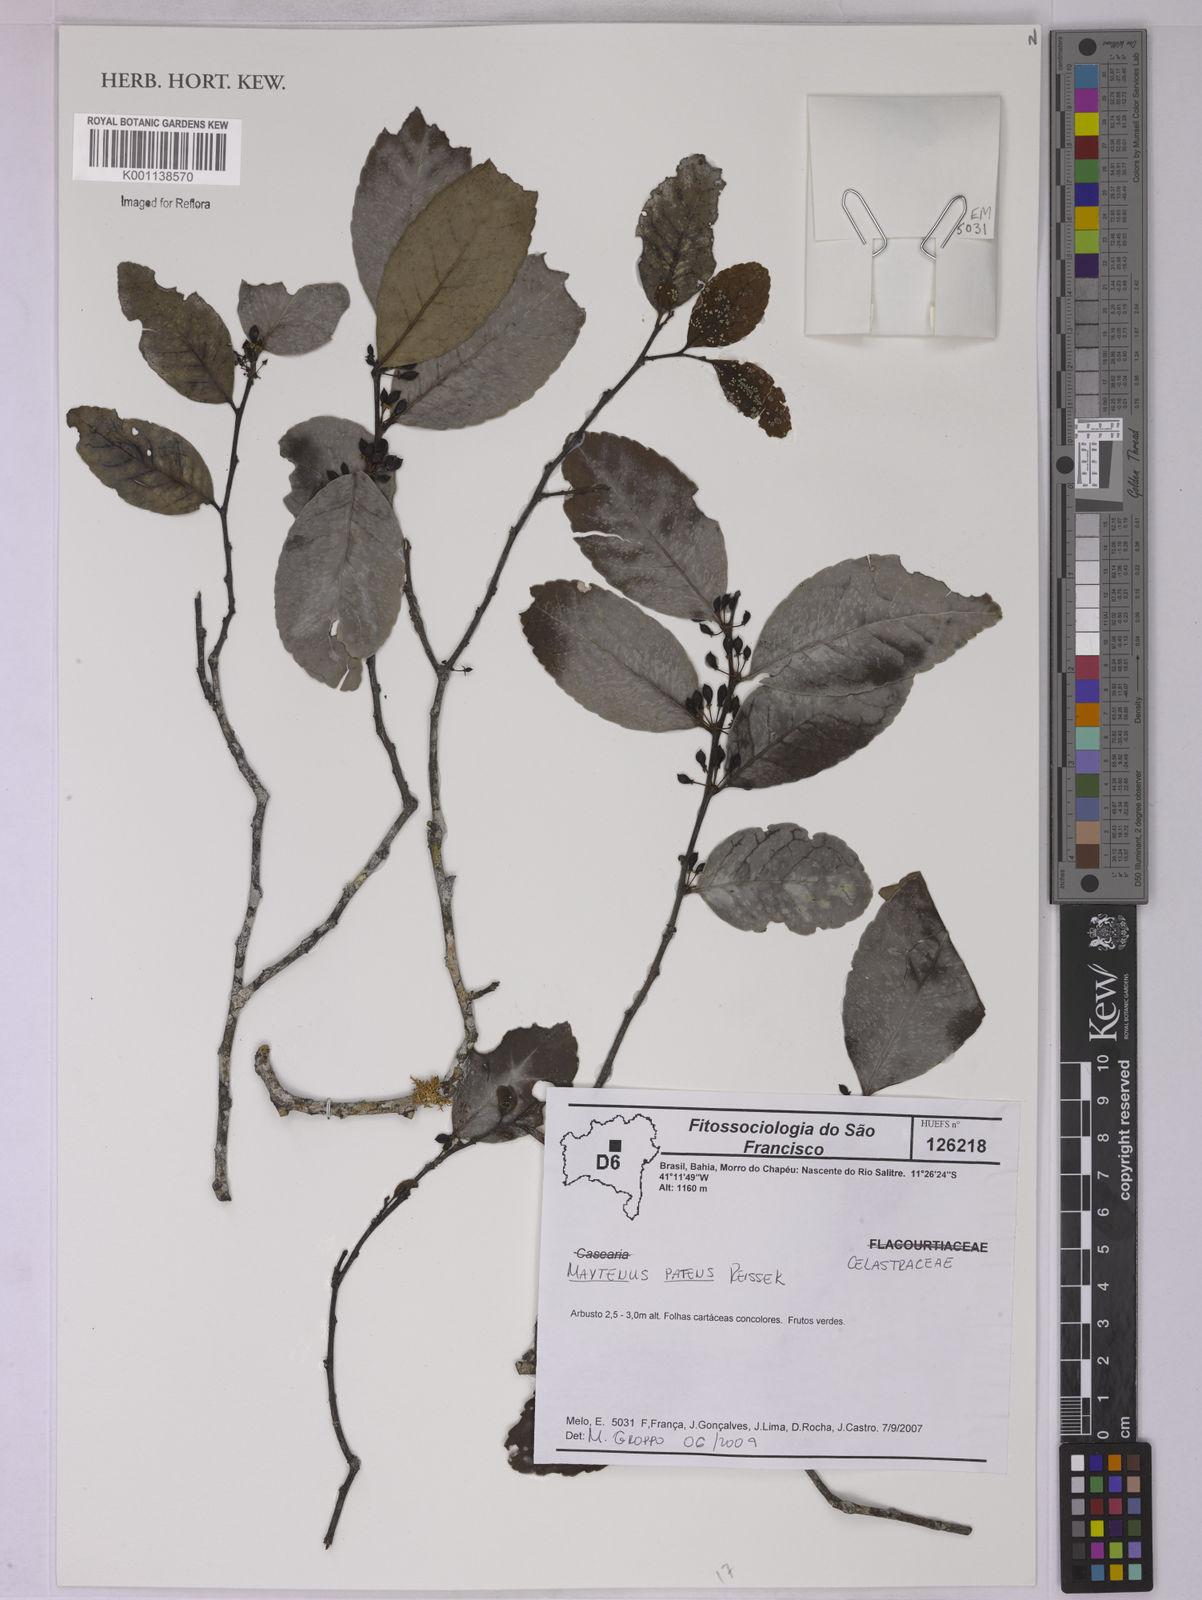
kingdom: Plantae
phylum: Tracheophyta
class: Magnoliopsida
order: Celastrales
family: Celastraceae
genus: Monteverdia
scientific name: Monteverdia patens
